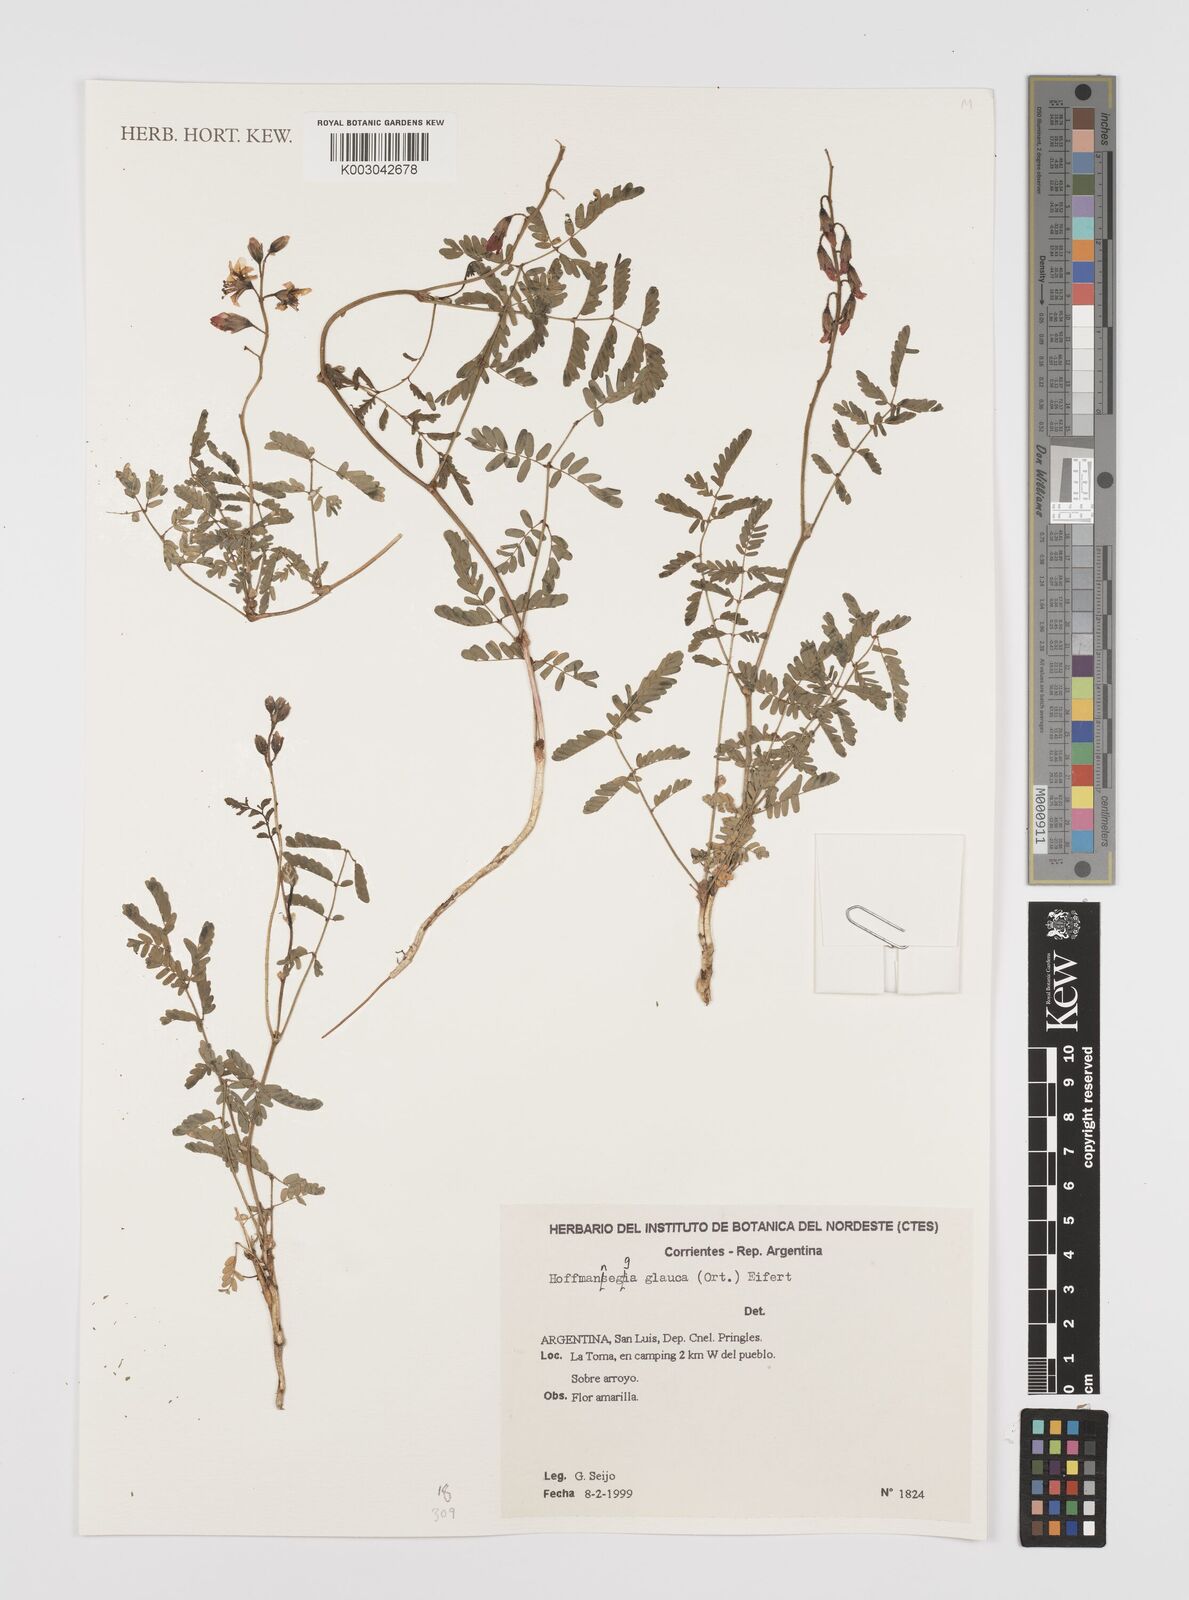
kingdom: Plantae
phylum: Tracheophyta
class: Magnoliopsida
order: Fabales
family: Fabaceae
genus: Hoffmannseggia
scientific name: Hoffmannseggia glauca
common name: Pignut
